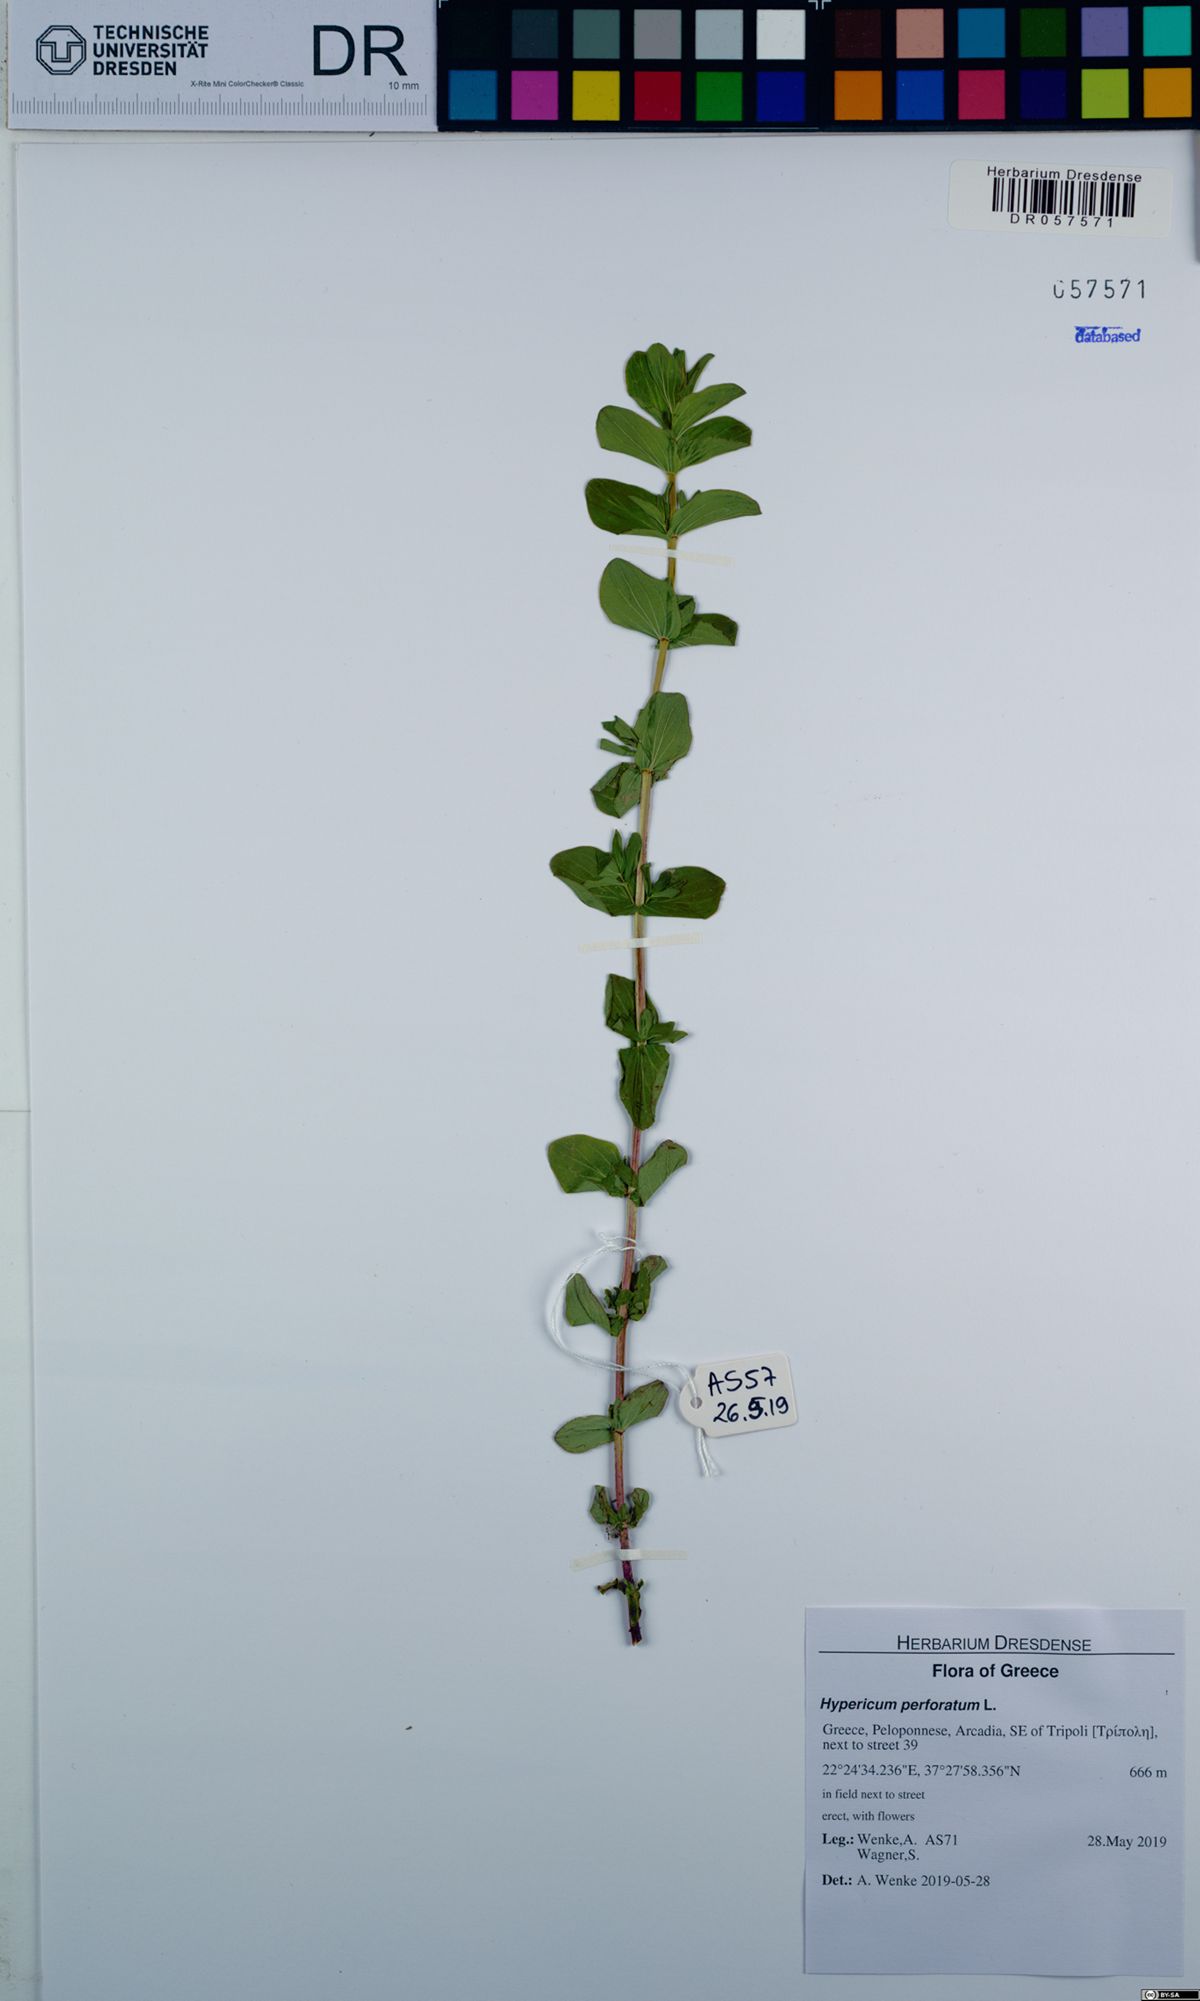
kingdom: Plantae
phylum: Tracheophyta
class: Magnoliopsida
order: Malpighiales
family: Hypericaceae
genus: Hypericum
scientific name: Hypericum perforatum
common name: Common st. johnswort
